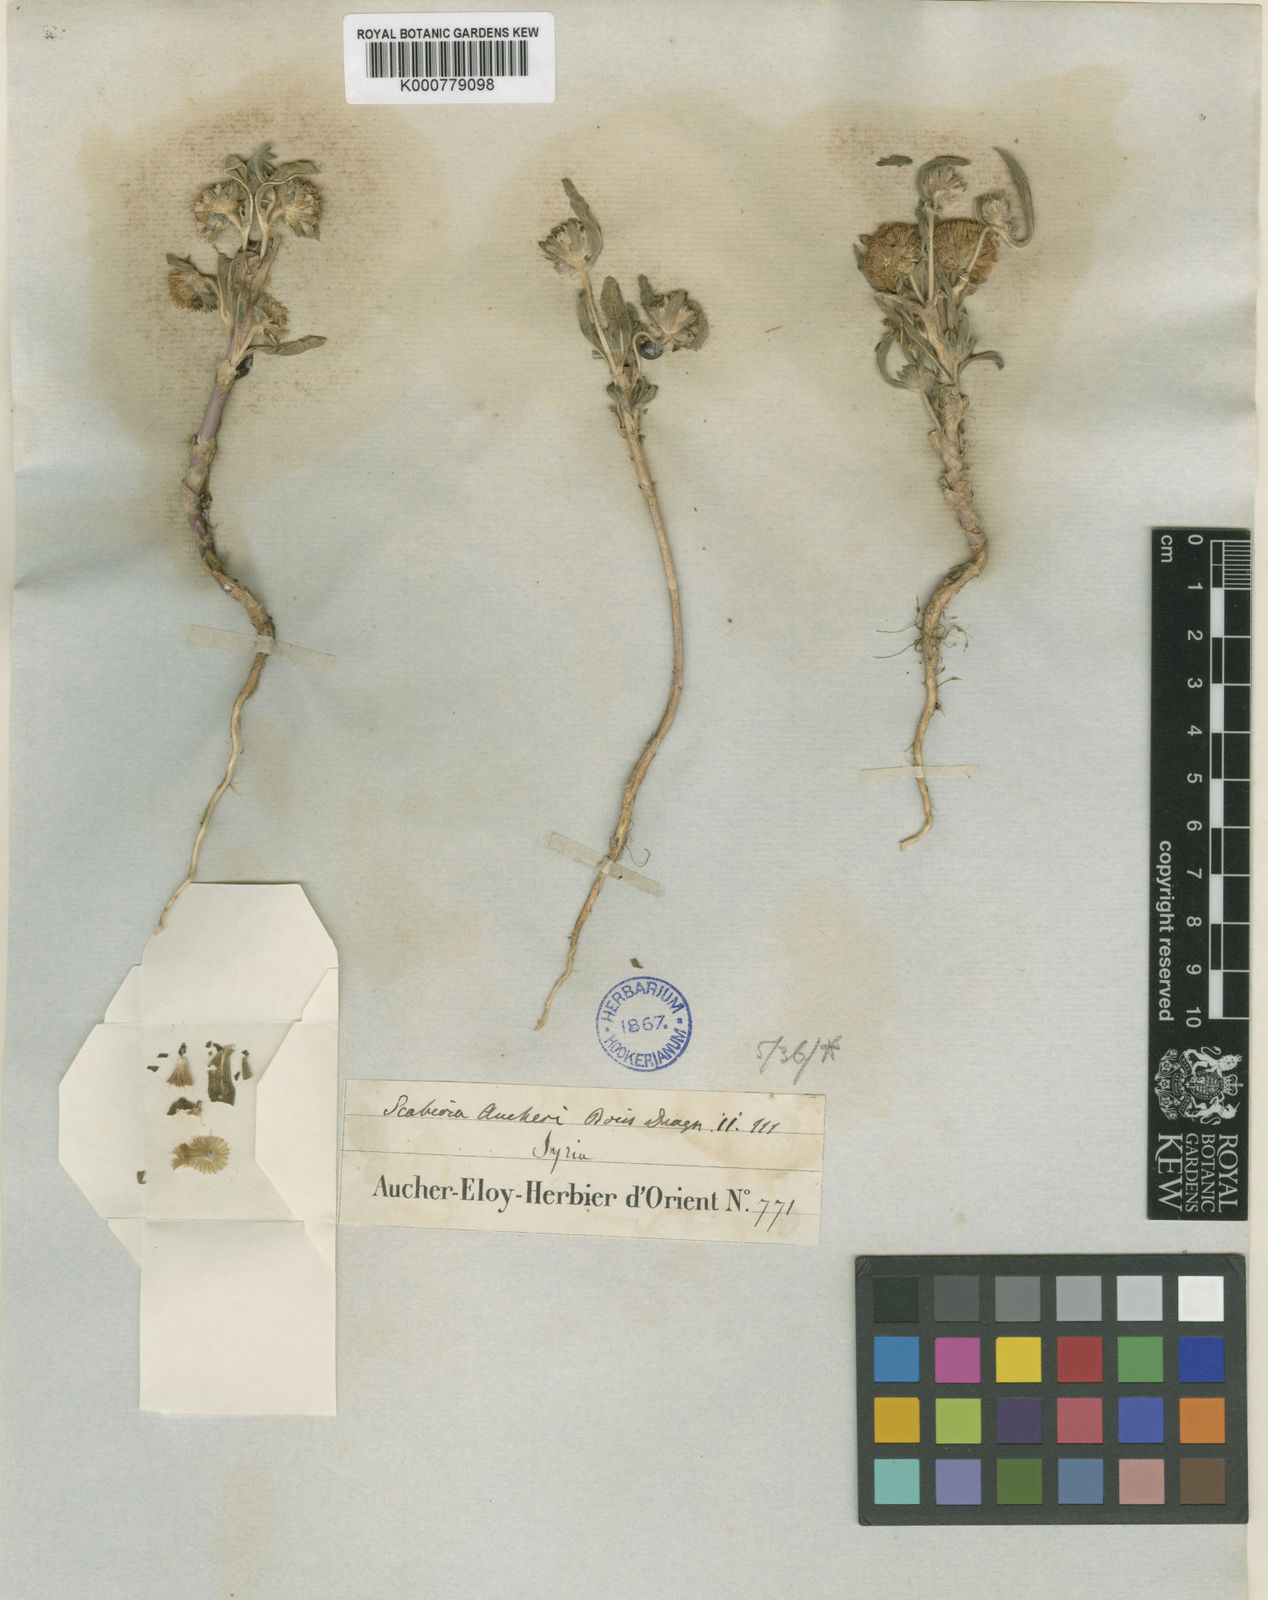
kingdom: Plantae
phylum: Tracheophyta
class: Magnoliopsida
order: Dipsacales
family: Caprifoliaceae
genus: Lomelosia
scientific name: Lomelosia porphyroneura
